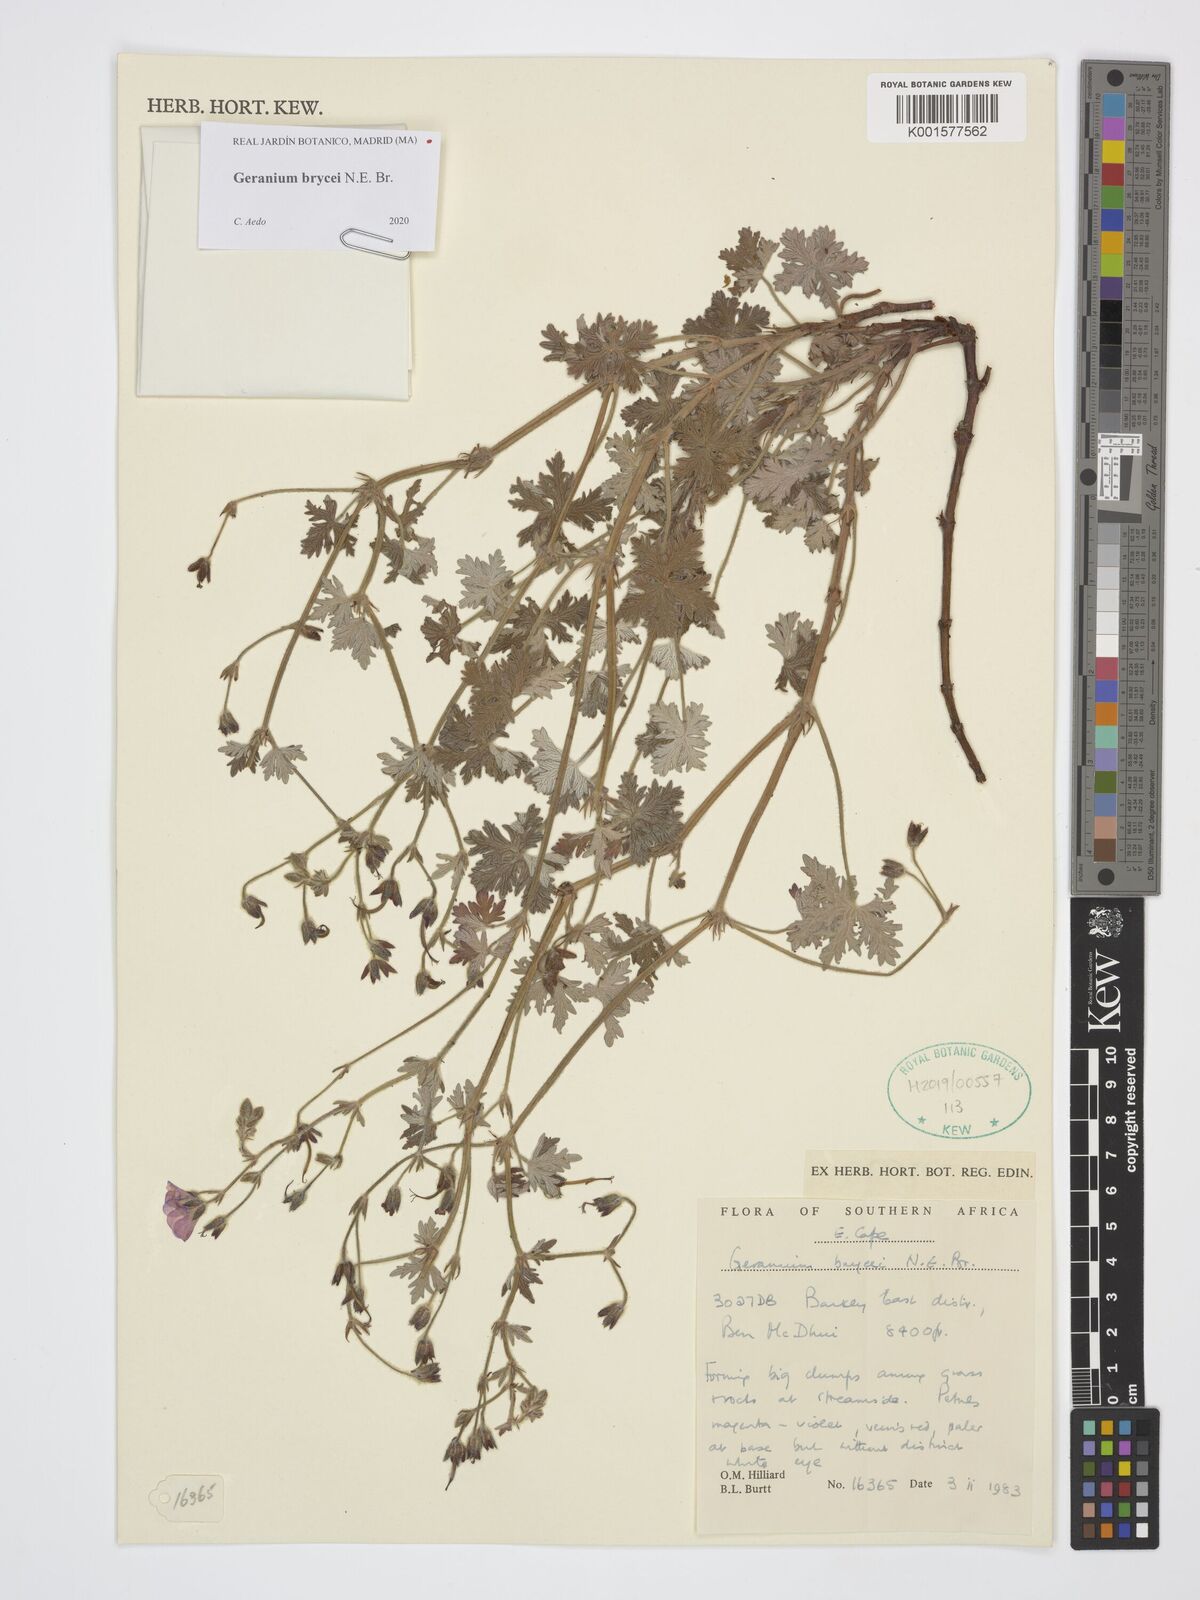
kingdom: Plantae
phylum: Tracheophyta
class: Magnoliopsida
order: Geraniales
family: Geraniaceae
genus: Geranium
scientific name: Geranium brycei
